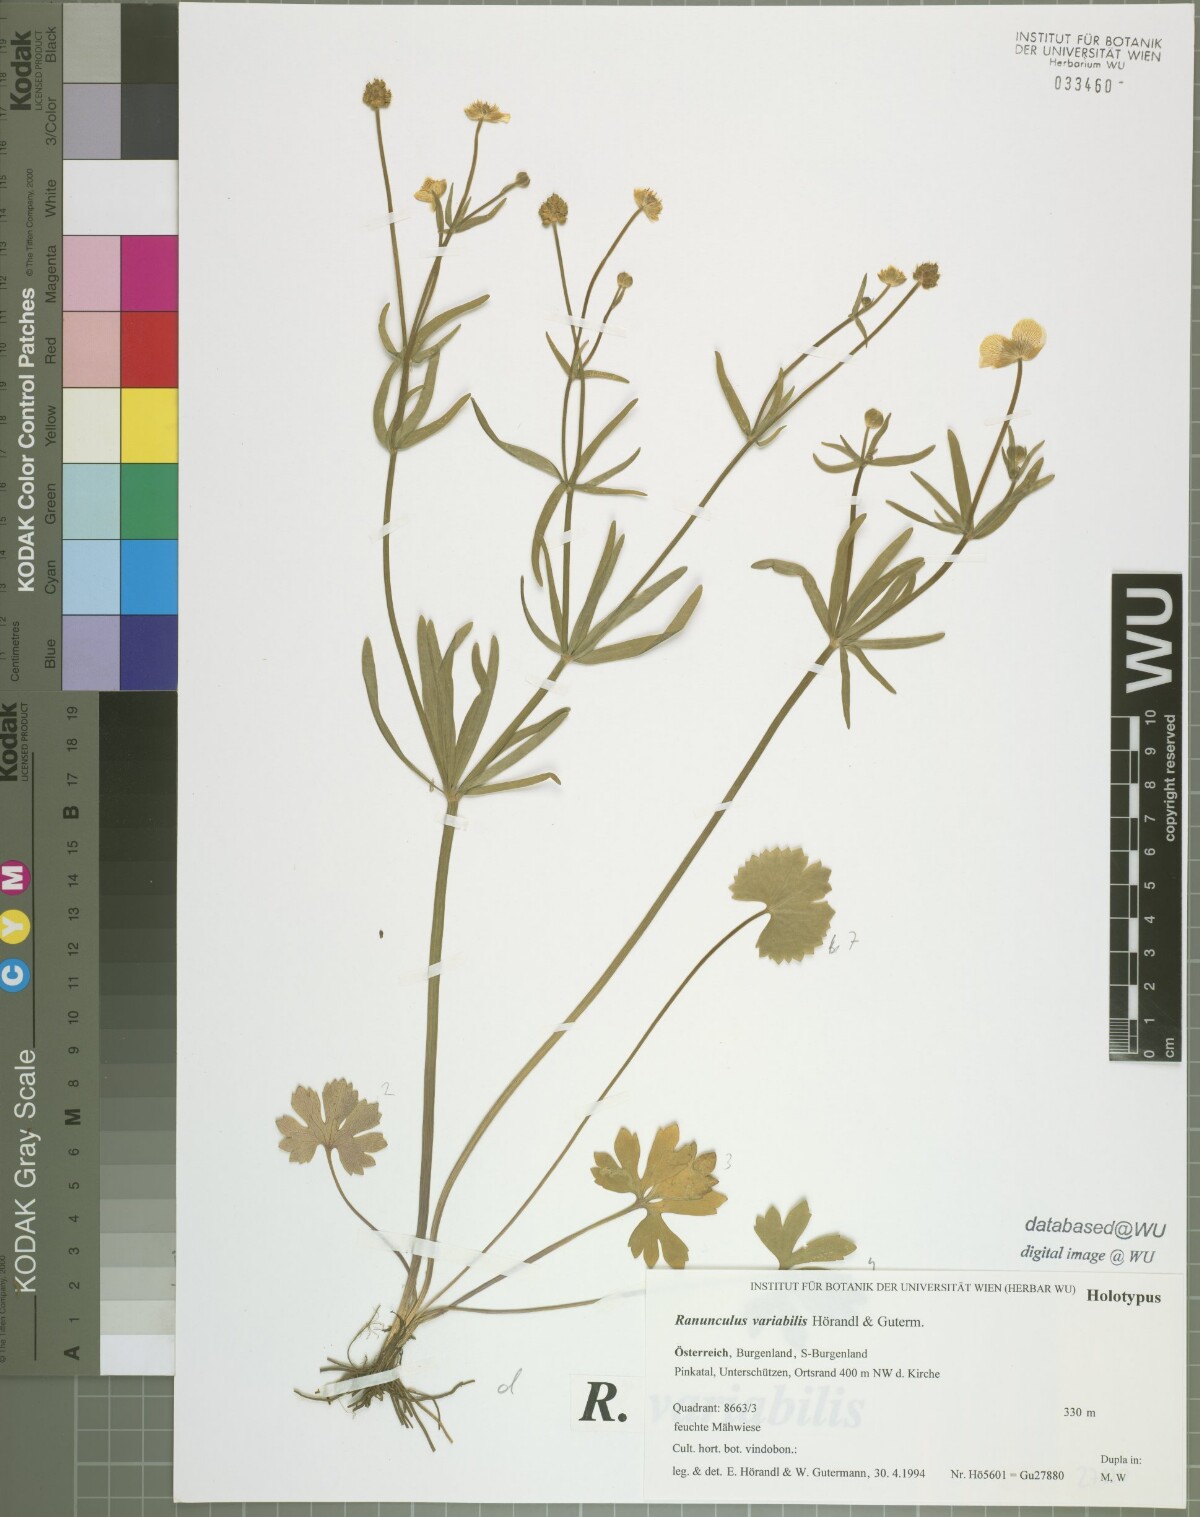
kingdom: Plantae
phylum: Tracheophyta
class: Magnoliopsida
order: Ranunculales
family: Ranunculaceae
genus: Ranunculus
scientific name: Ranunculus variabilis
